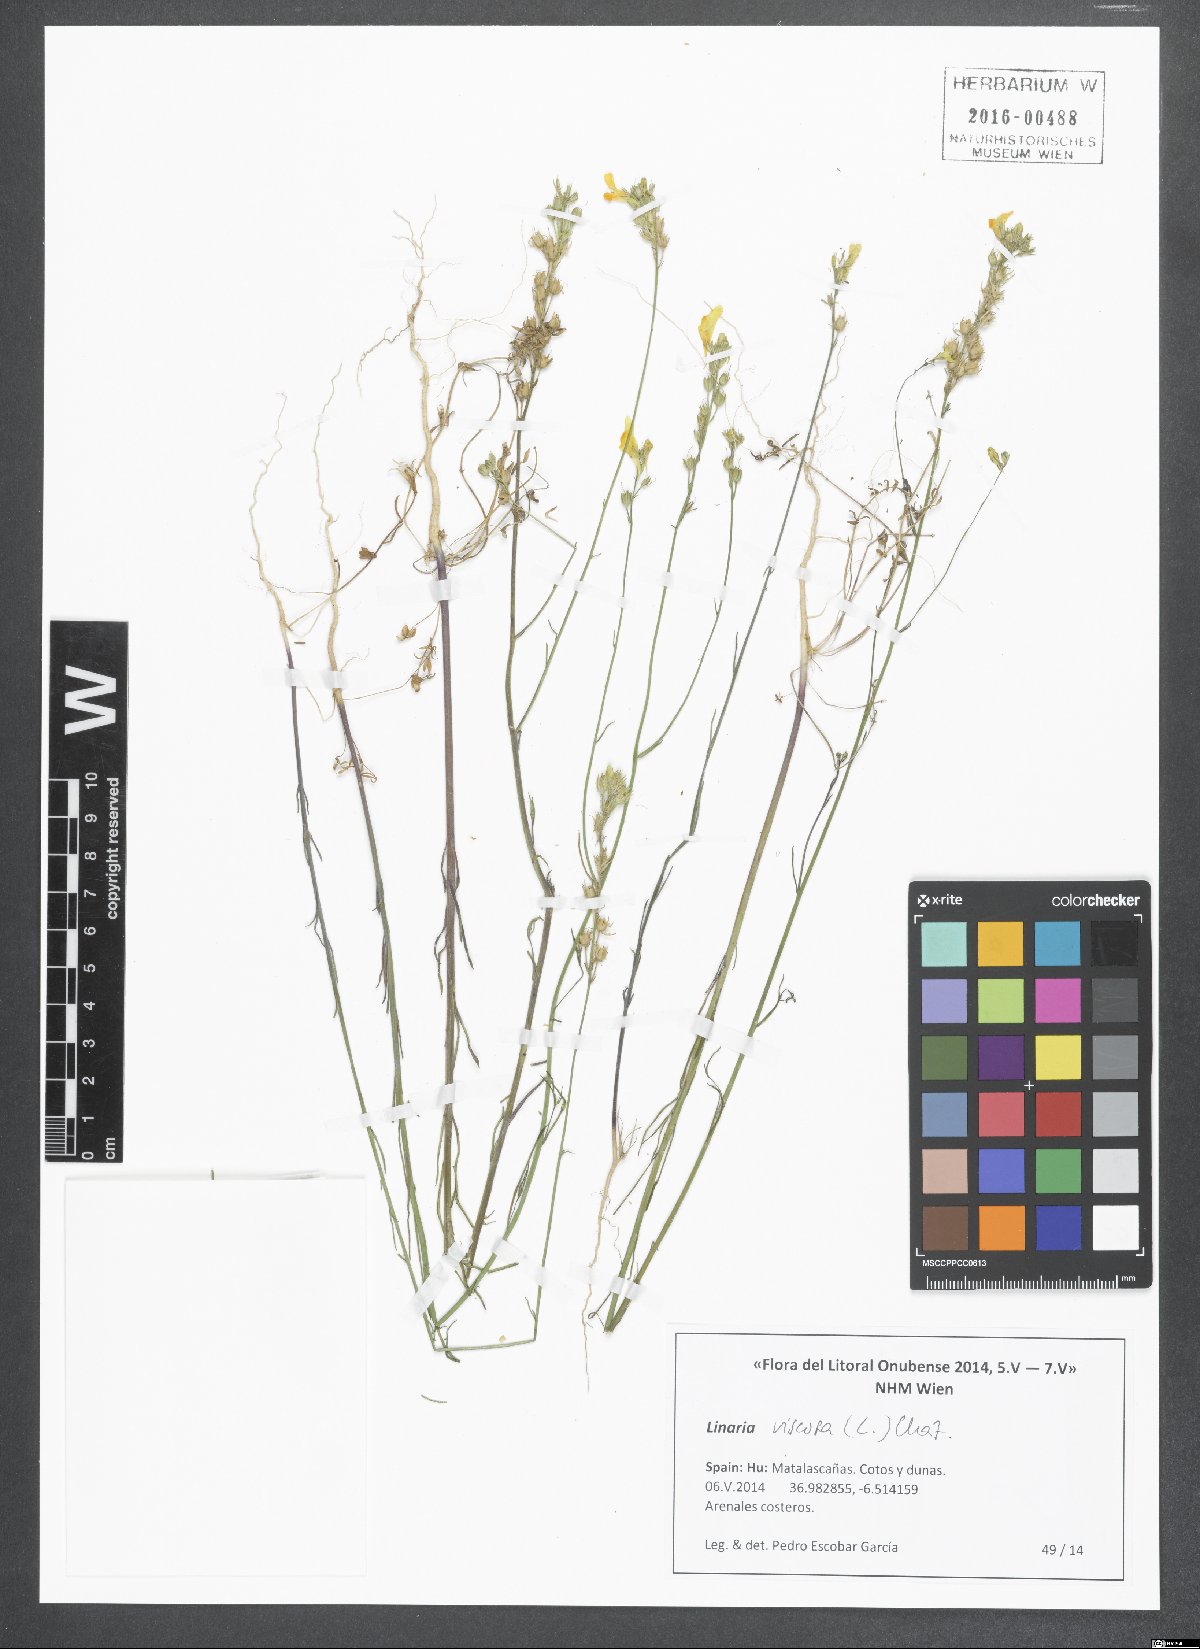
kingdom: Plantae
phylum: Tracheophyta
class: Magnoliopsida
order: Lamiales
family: Plantaginaceae
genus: Linaria
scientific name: Linaria viscosa
